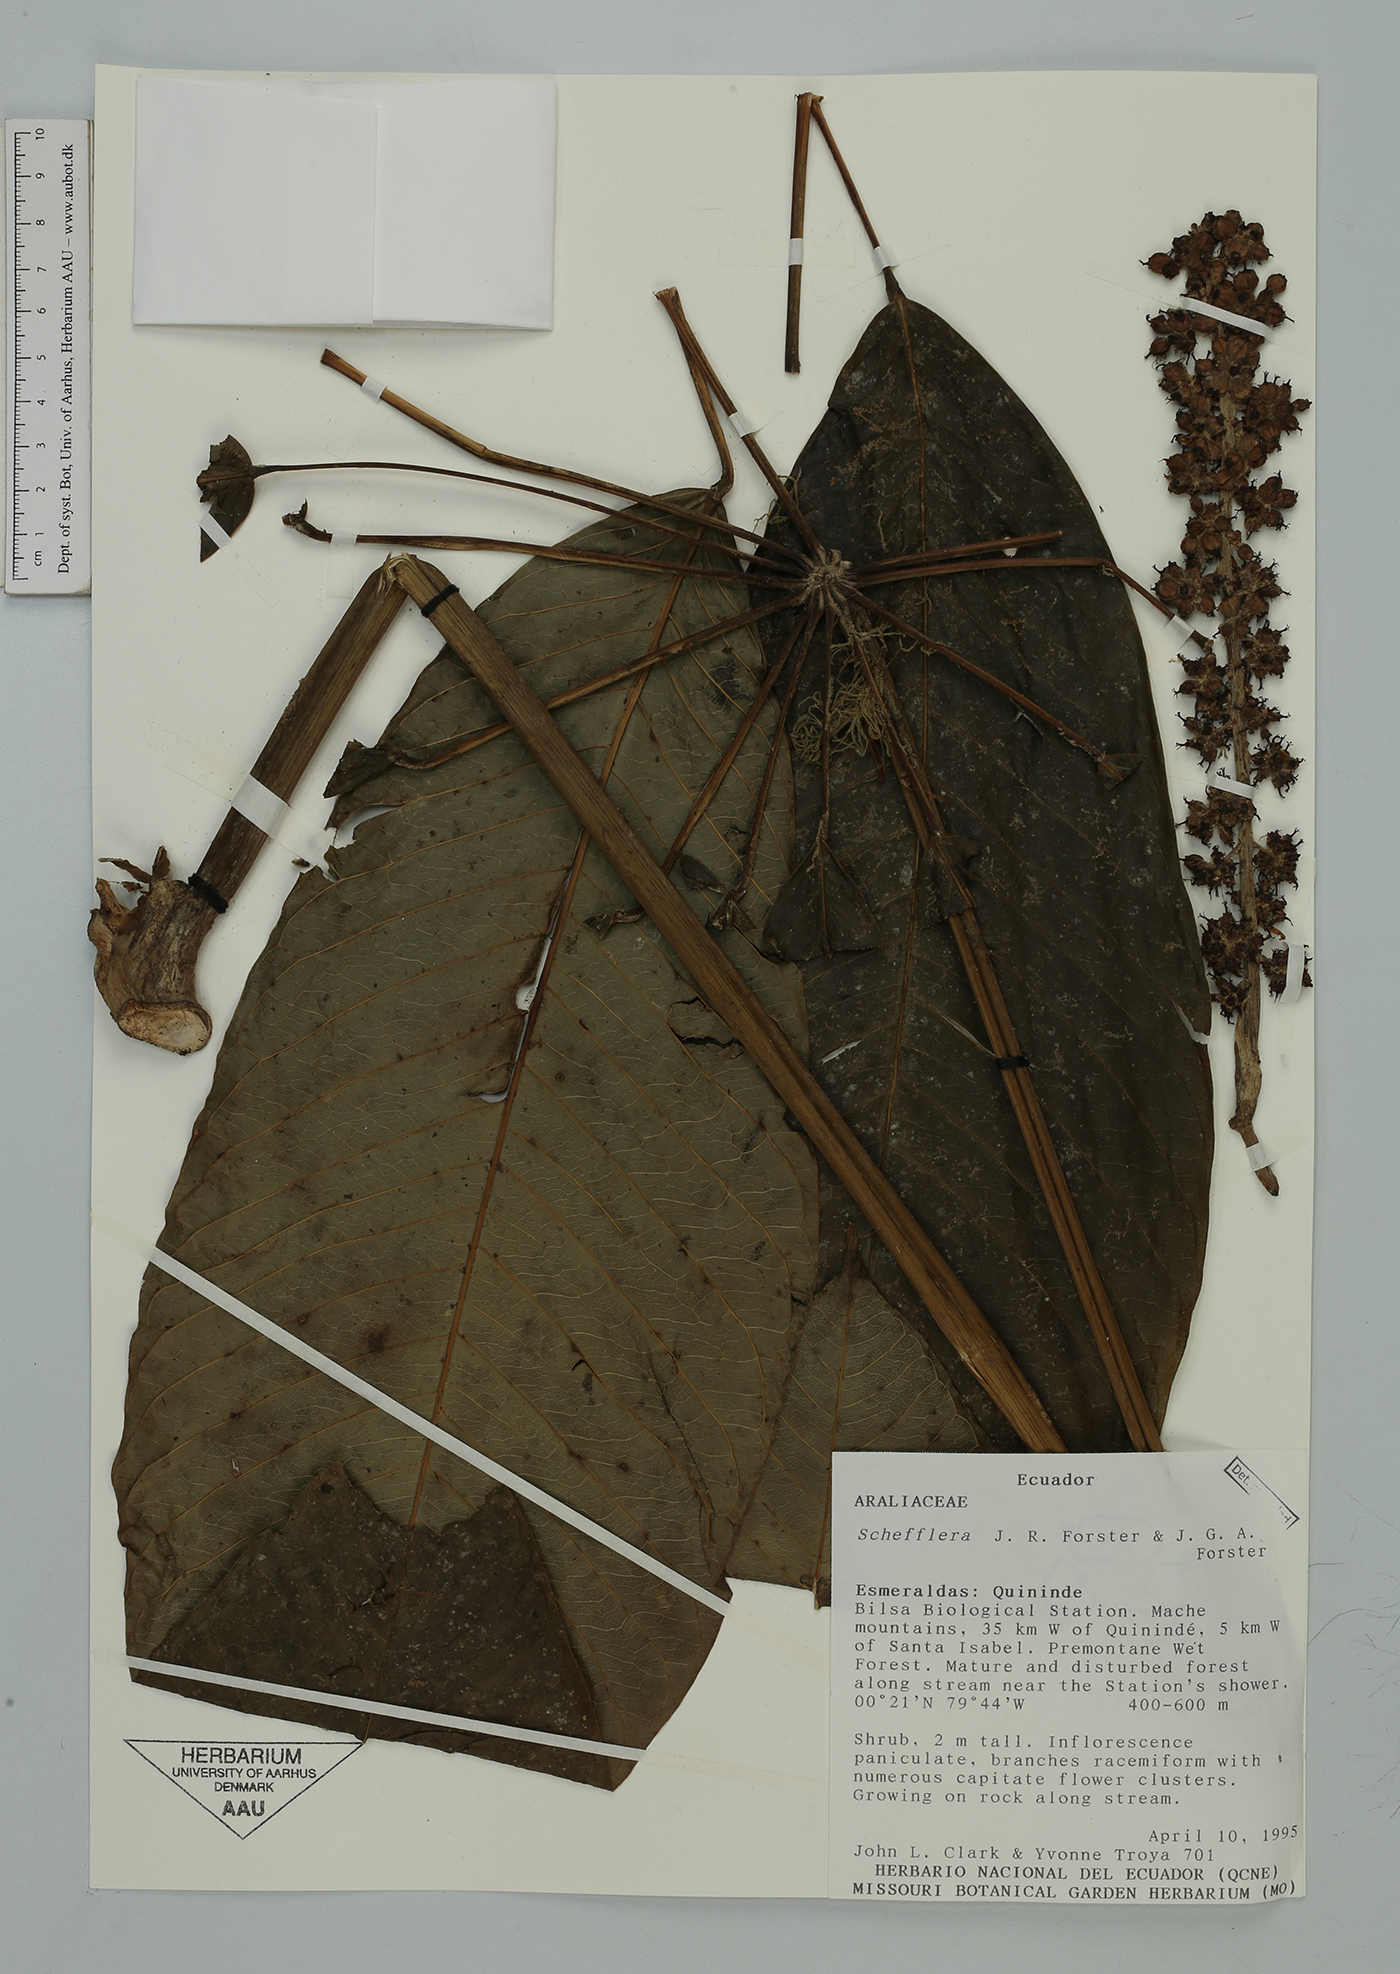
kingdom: Plantae
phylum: Tracheophyta
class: Magnoliopsida
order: Apiales
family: Araliaceae
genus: Sciodaphyllum
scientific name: Sciodaphyllum
